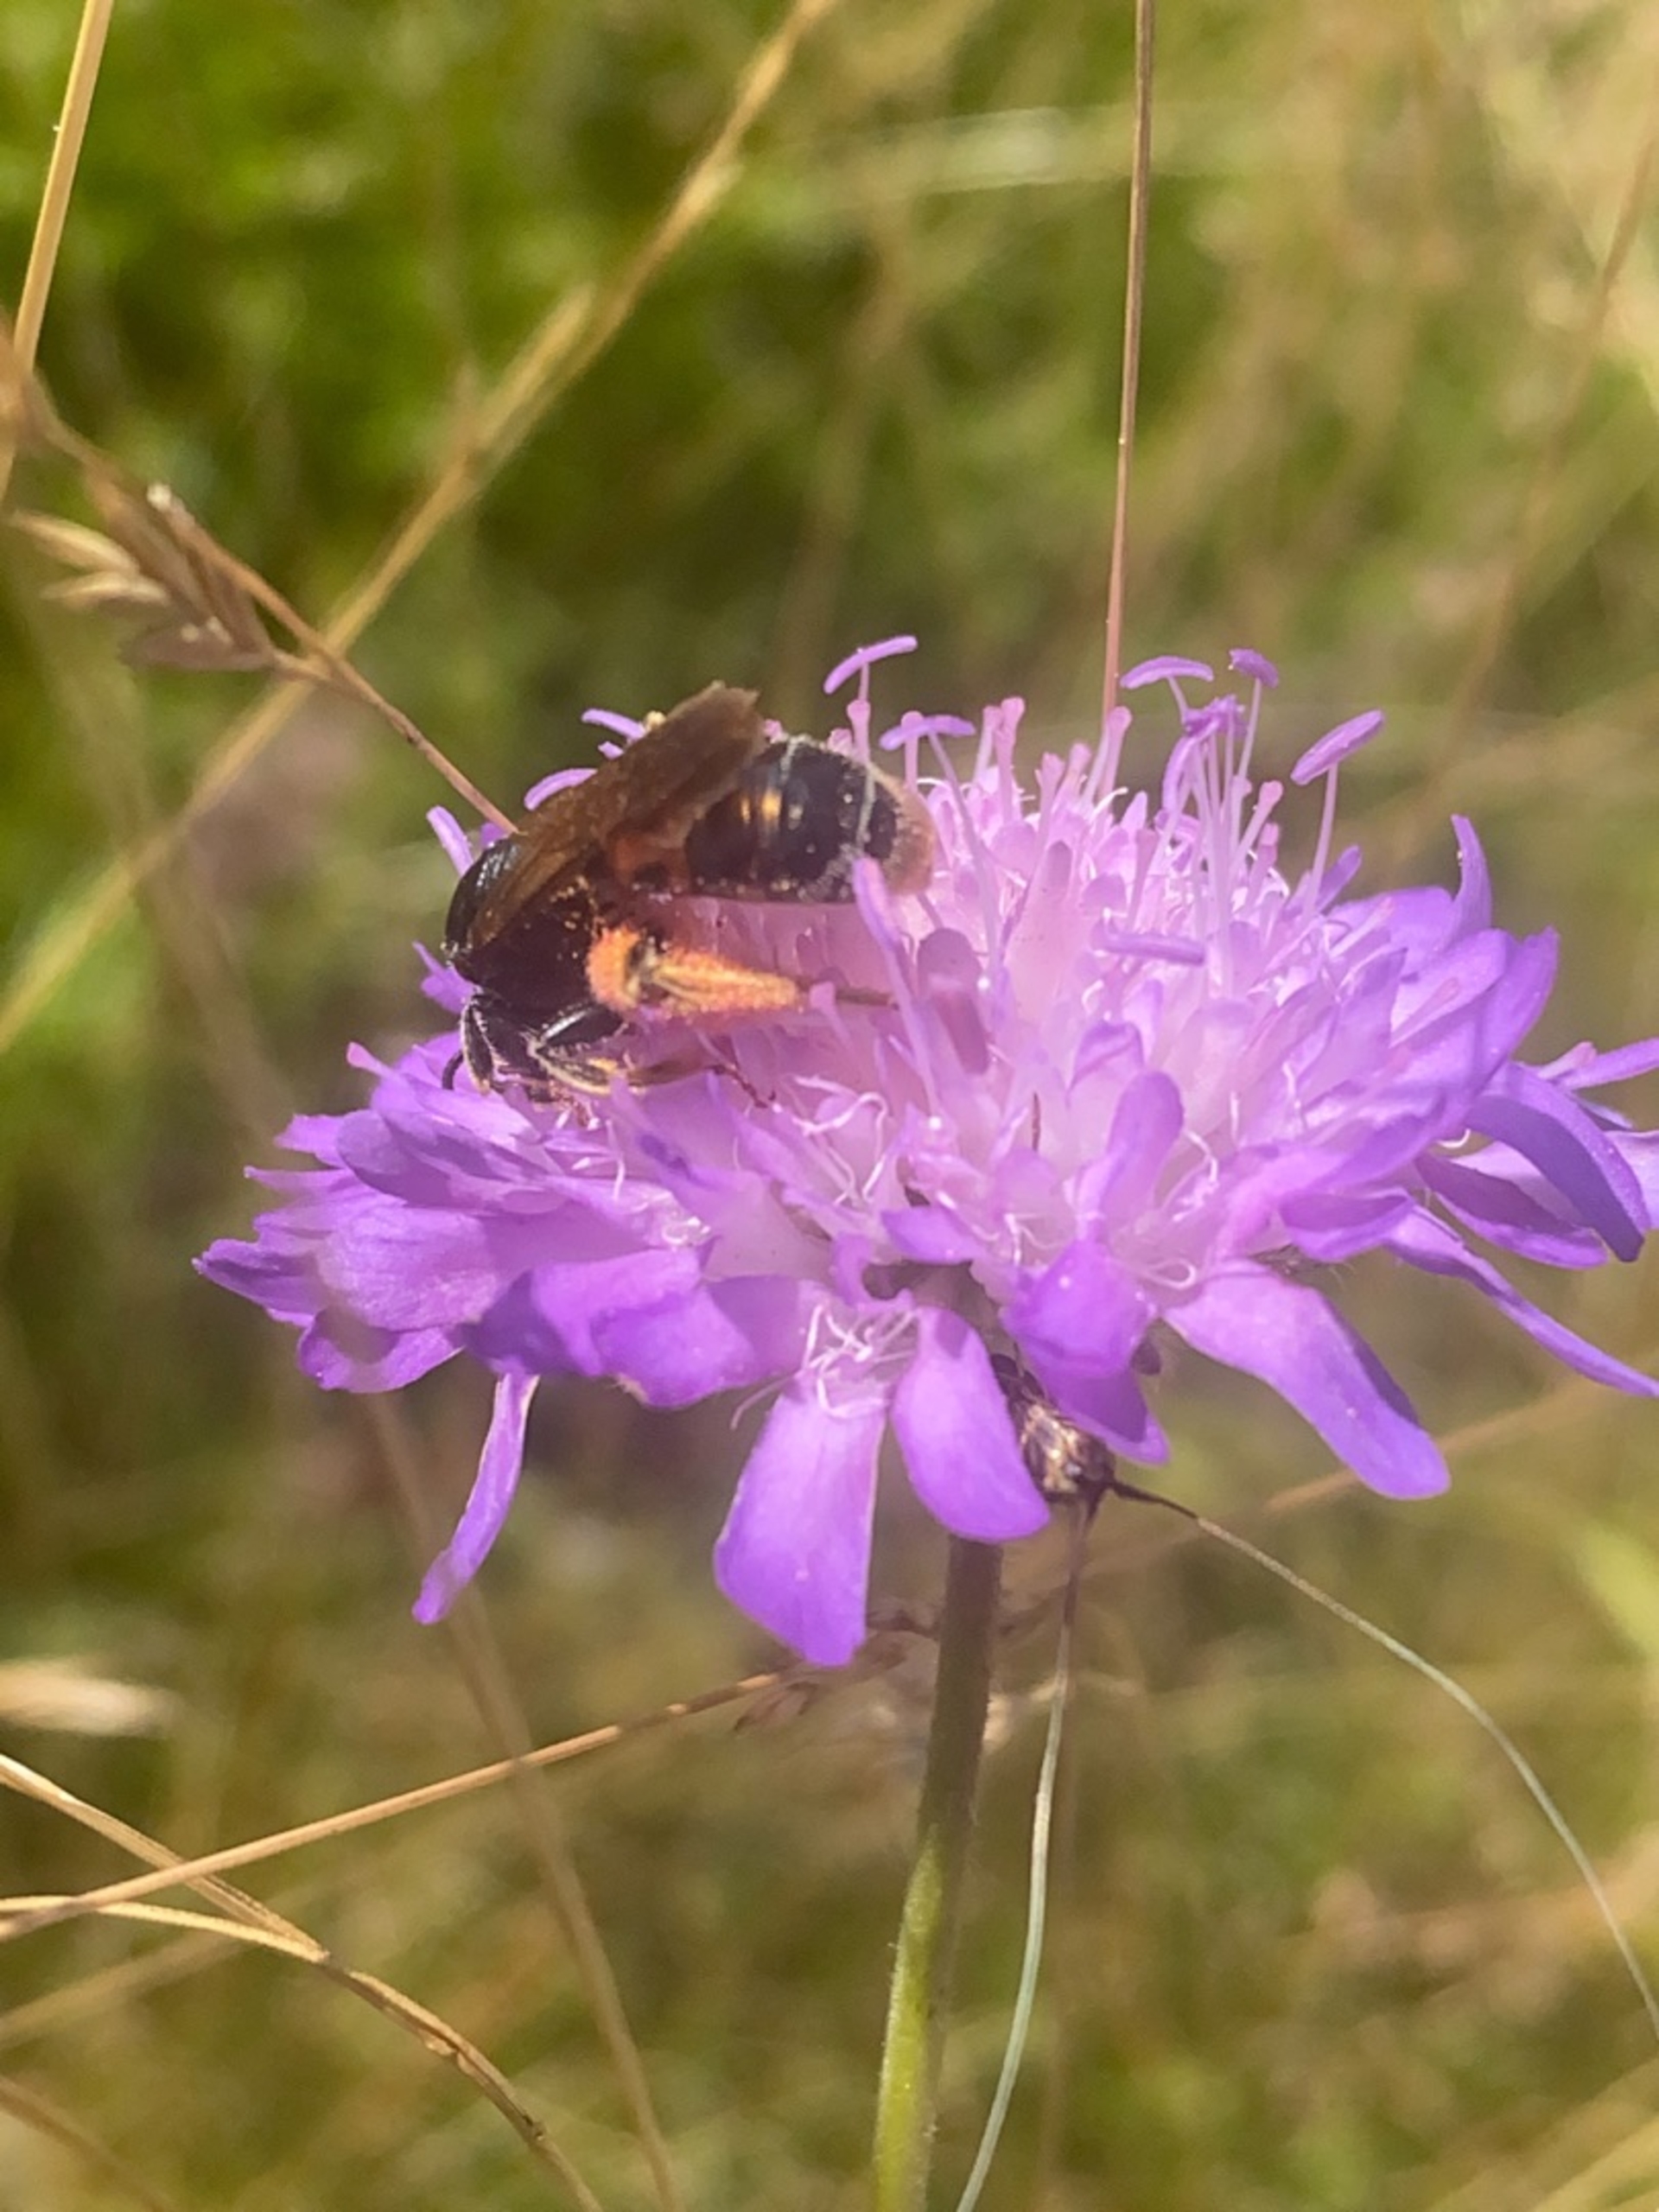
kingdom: Animalia
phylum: Arthropoda
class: Insecta
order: Hymenoptera
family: Andrenidae
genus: Andrena
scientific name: Andrena hattorfiana
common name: Blåhatjordbi
